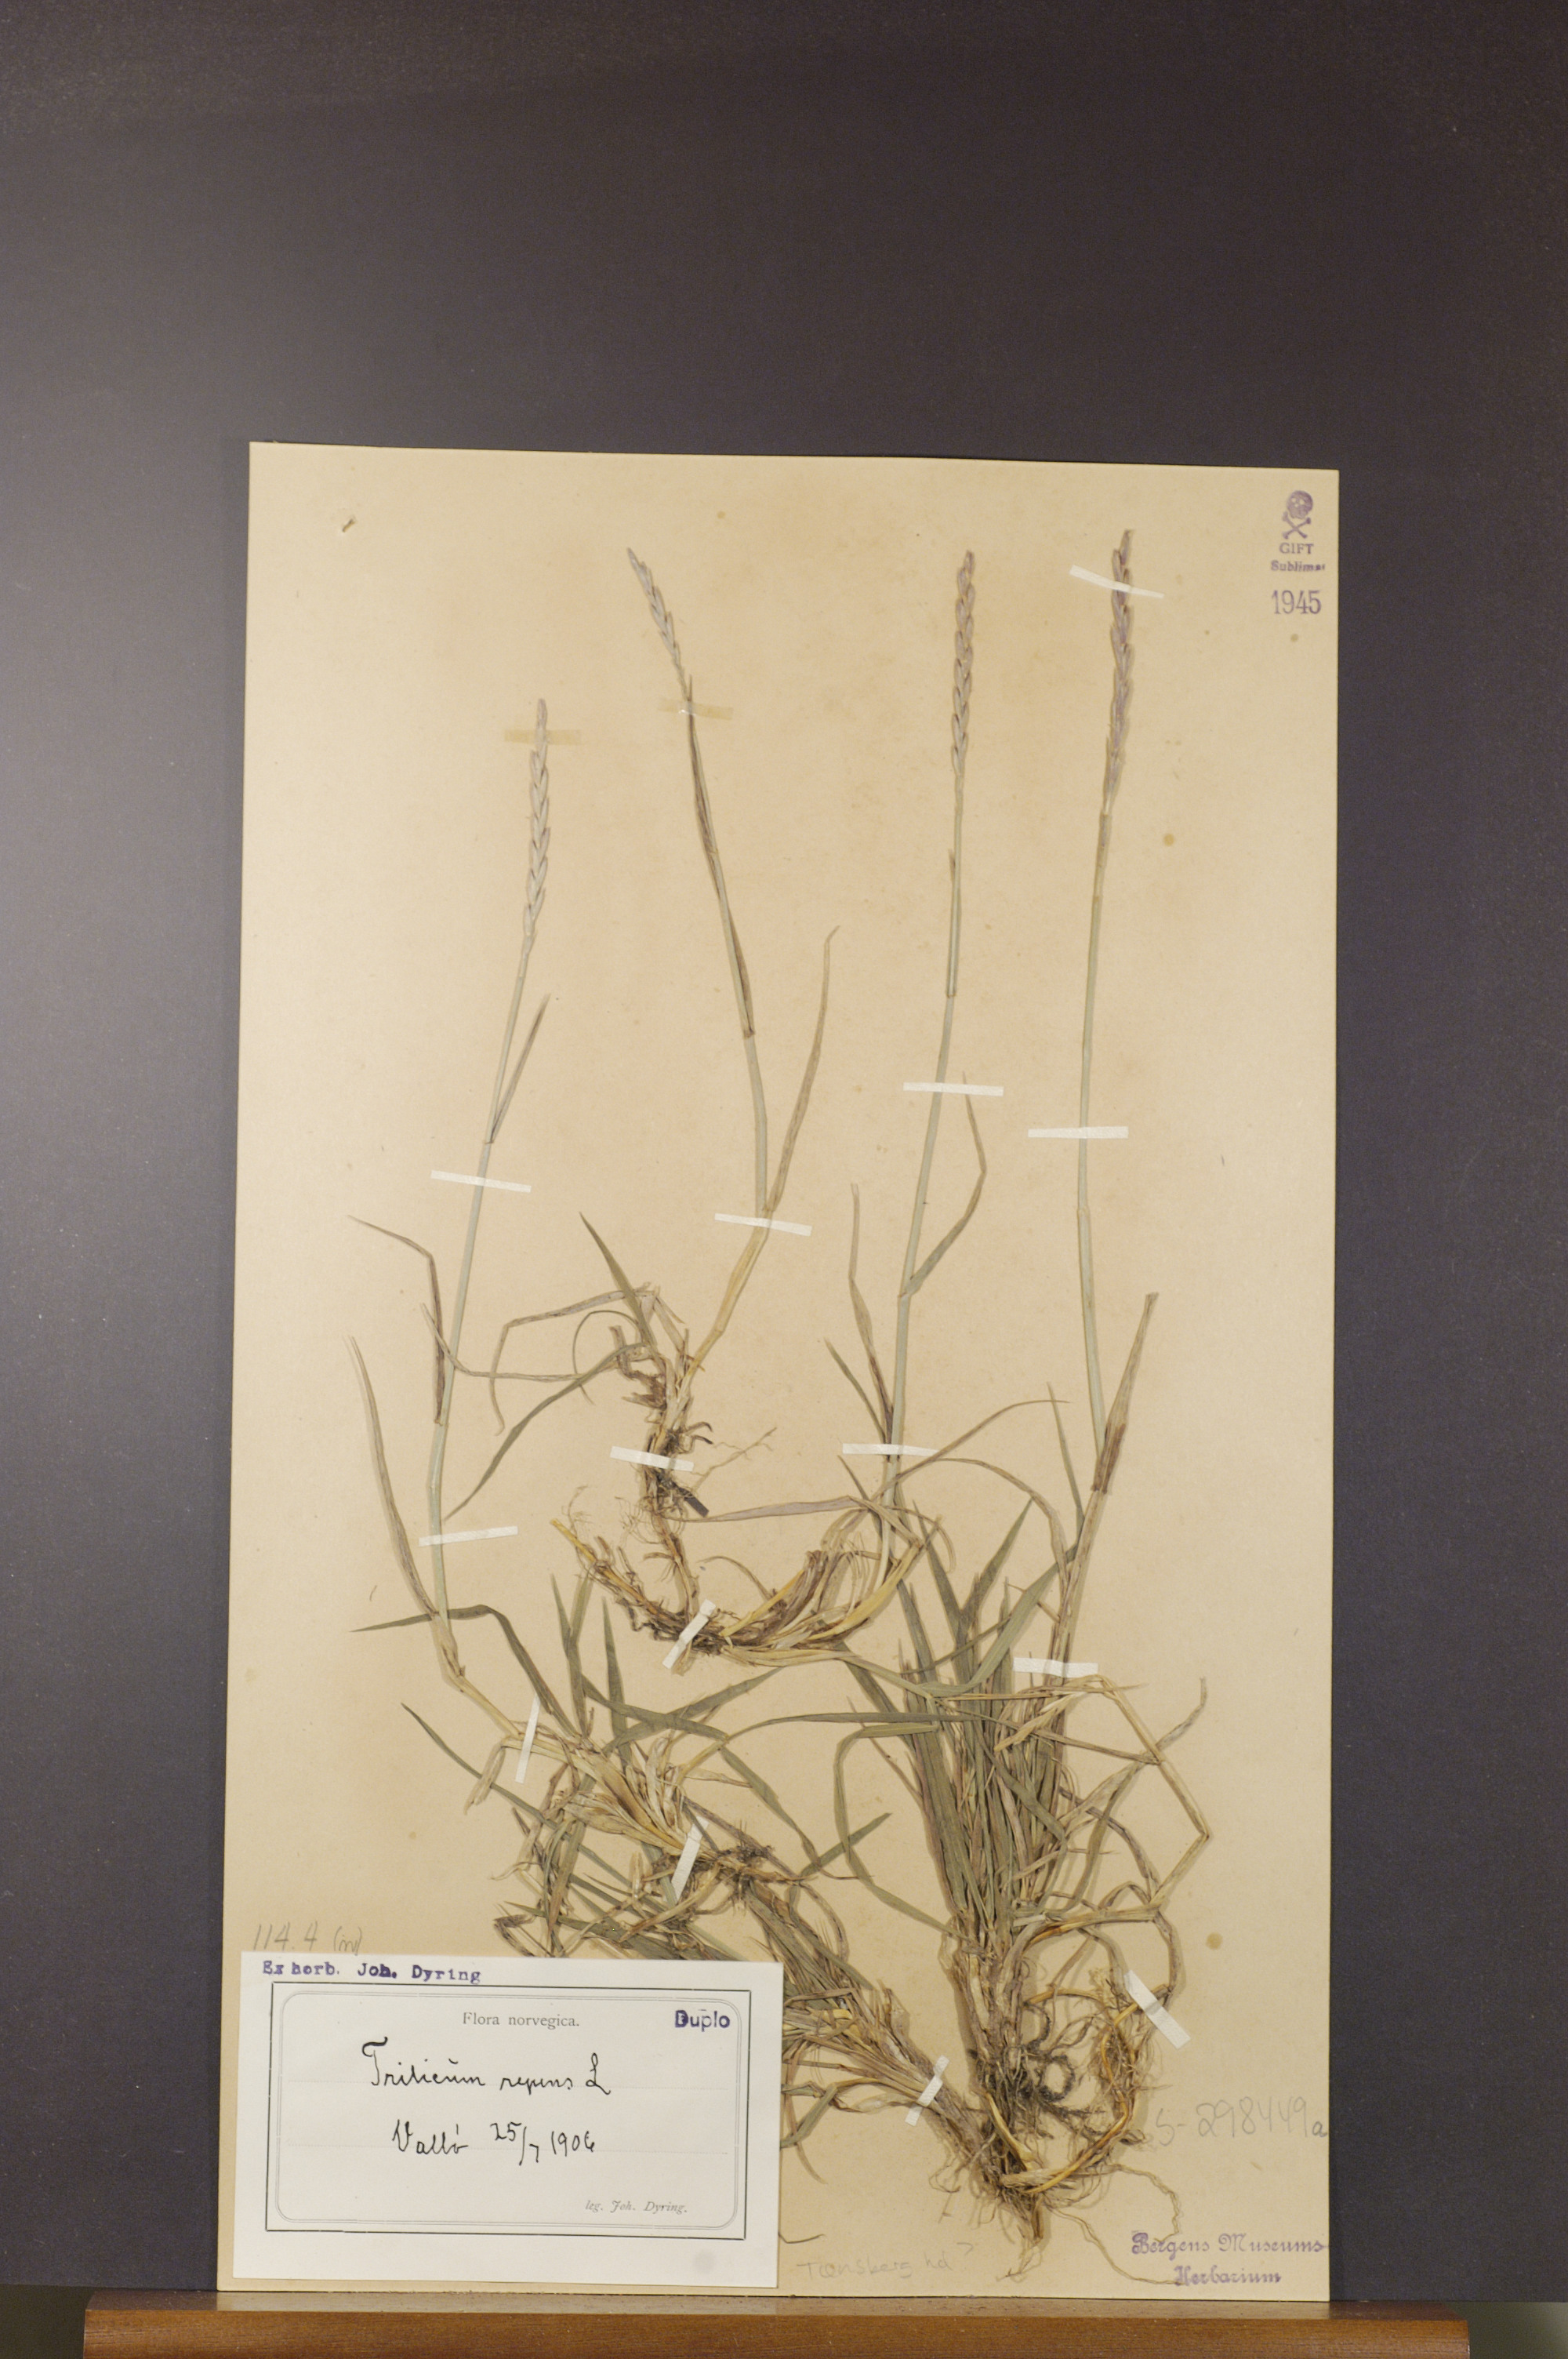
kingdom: Plantae
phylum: Tracheophyta
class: Liliopsida
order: Poales
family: Poaceae
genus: Elymus
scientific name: Elymus repens
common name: Quackgrass
